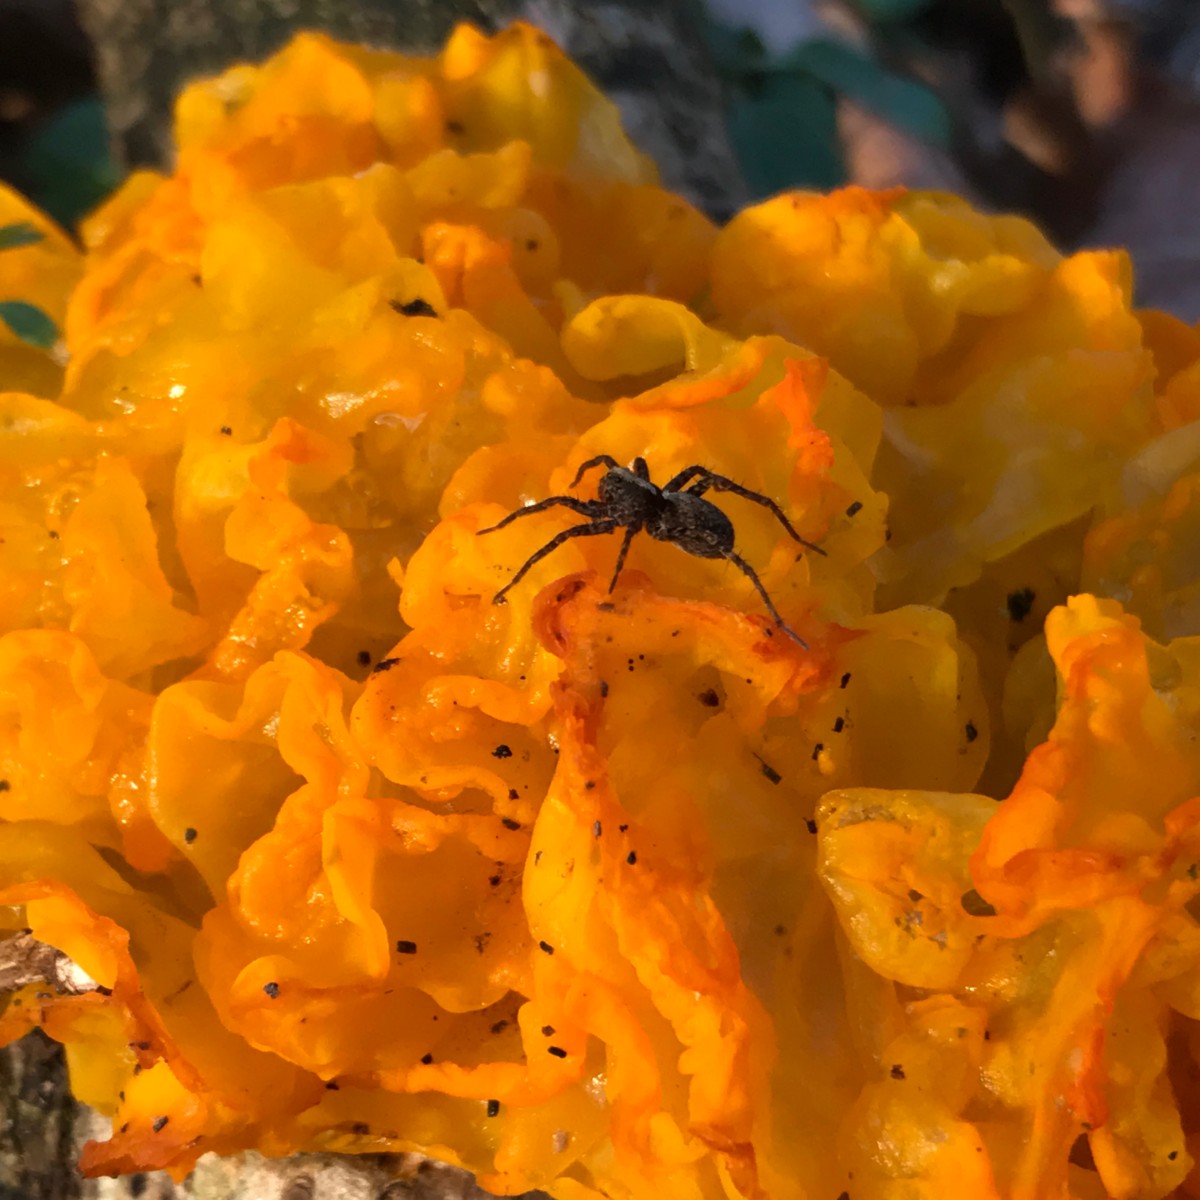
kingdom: Fungi
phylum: Basidiomycota
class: Tremellomycetes
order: Tremellales
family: Tremellaceae
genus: Tremella
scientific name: Tremella mesenterica
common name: gul bævresvamp
